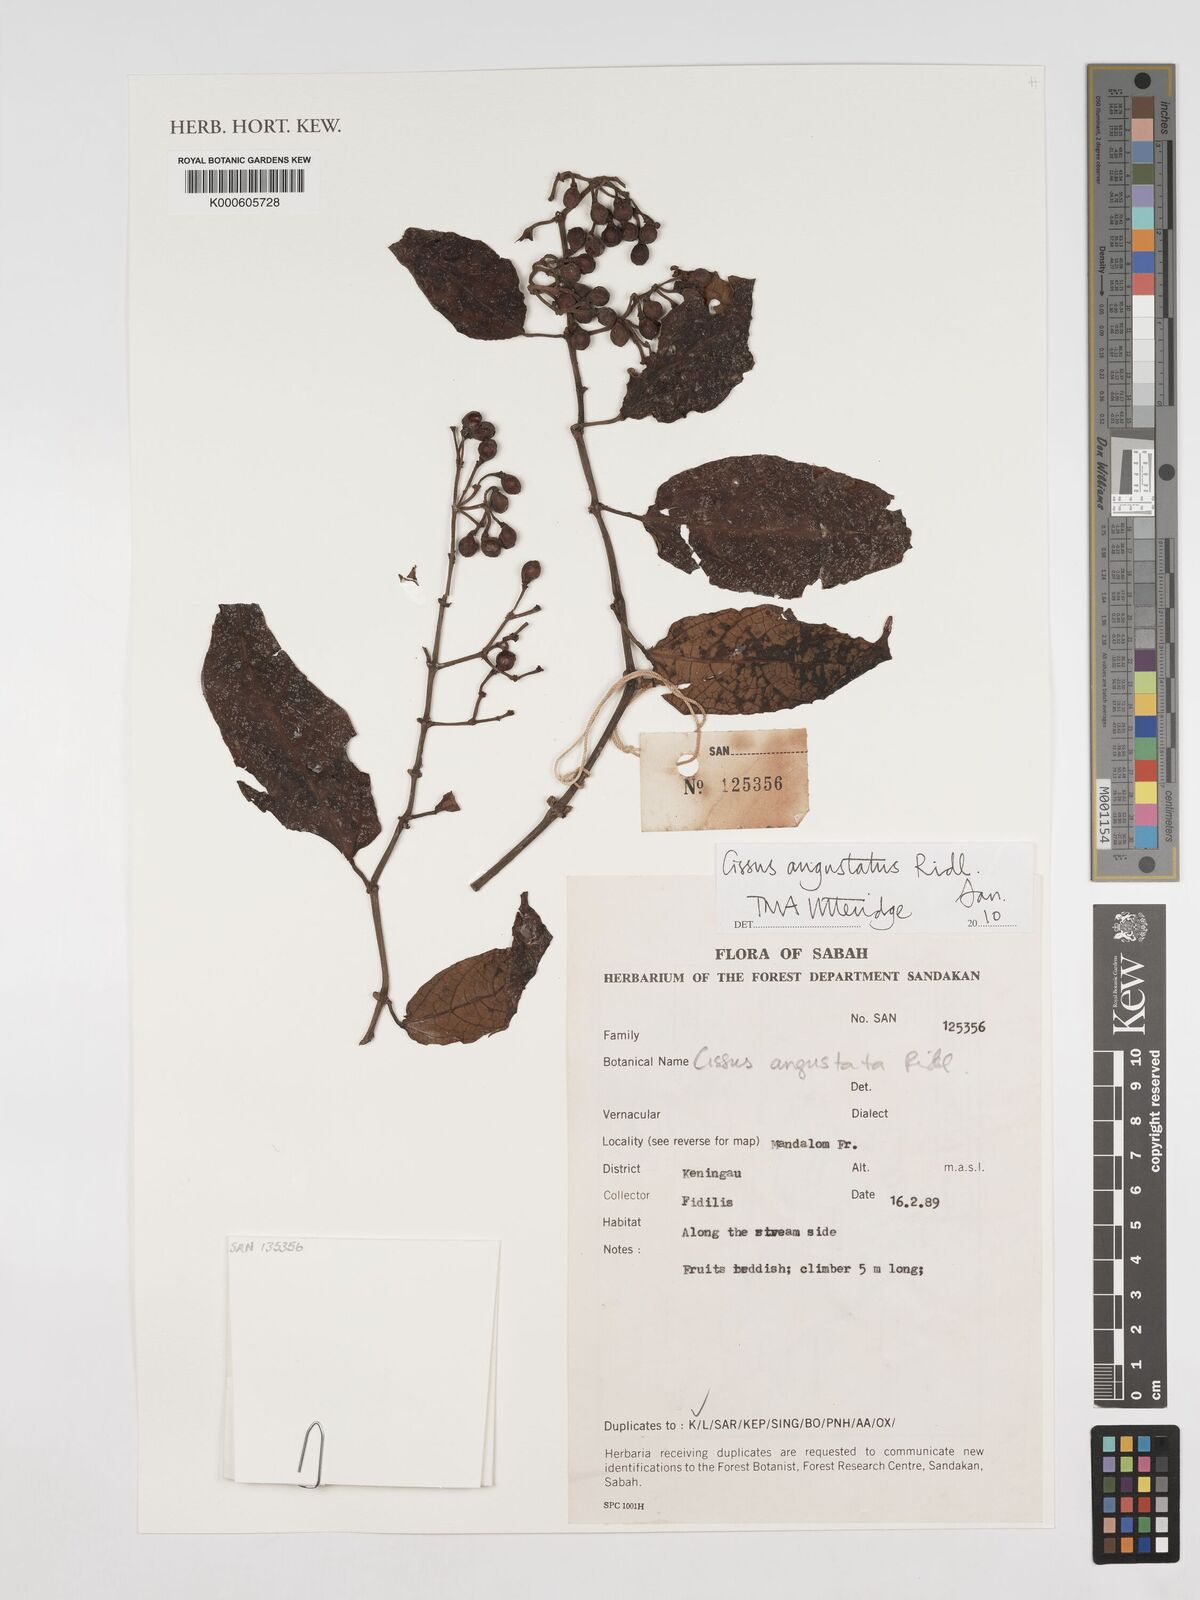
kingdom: Plantae
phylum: Tracheophyta
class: Magnoliopsida
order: Vitales
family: Vitaceae
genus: Cissus
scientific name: Cissus angustata
